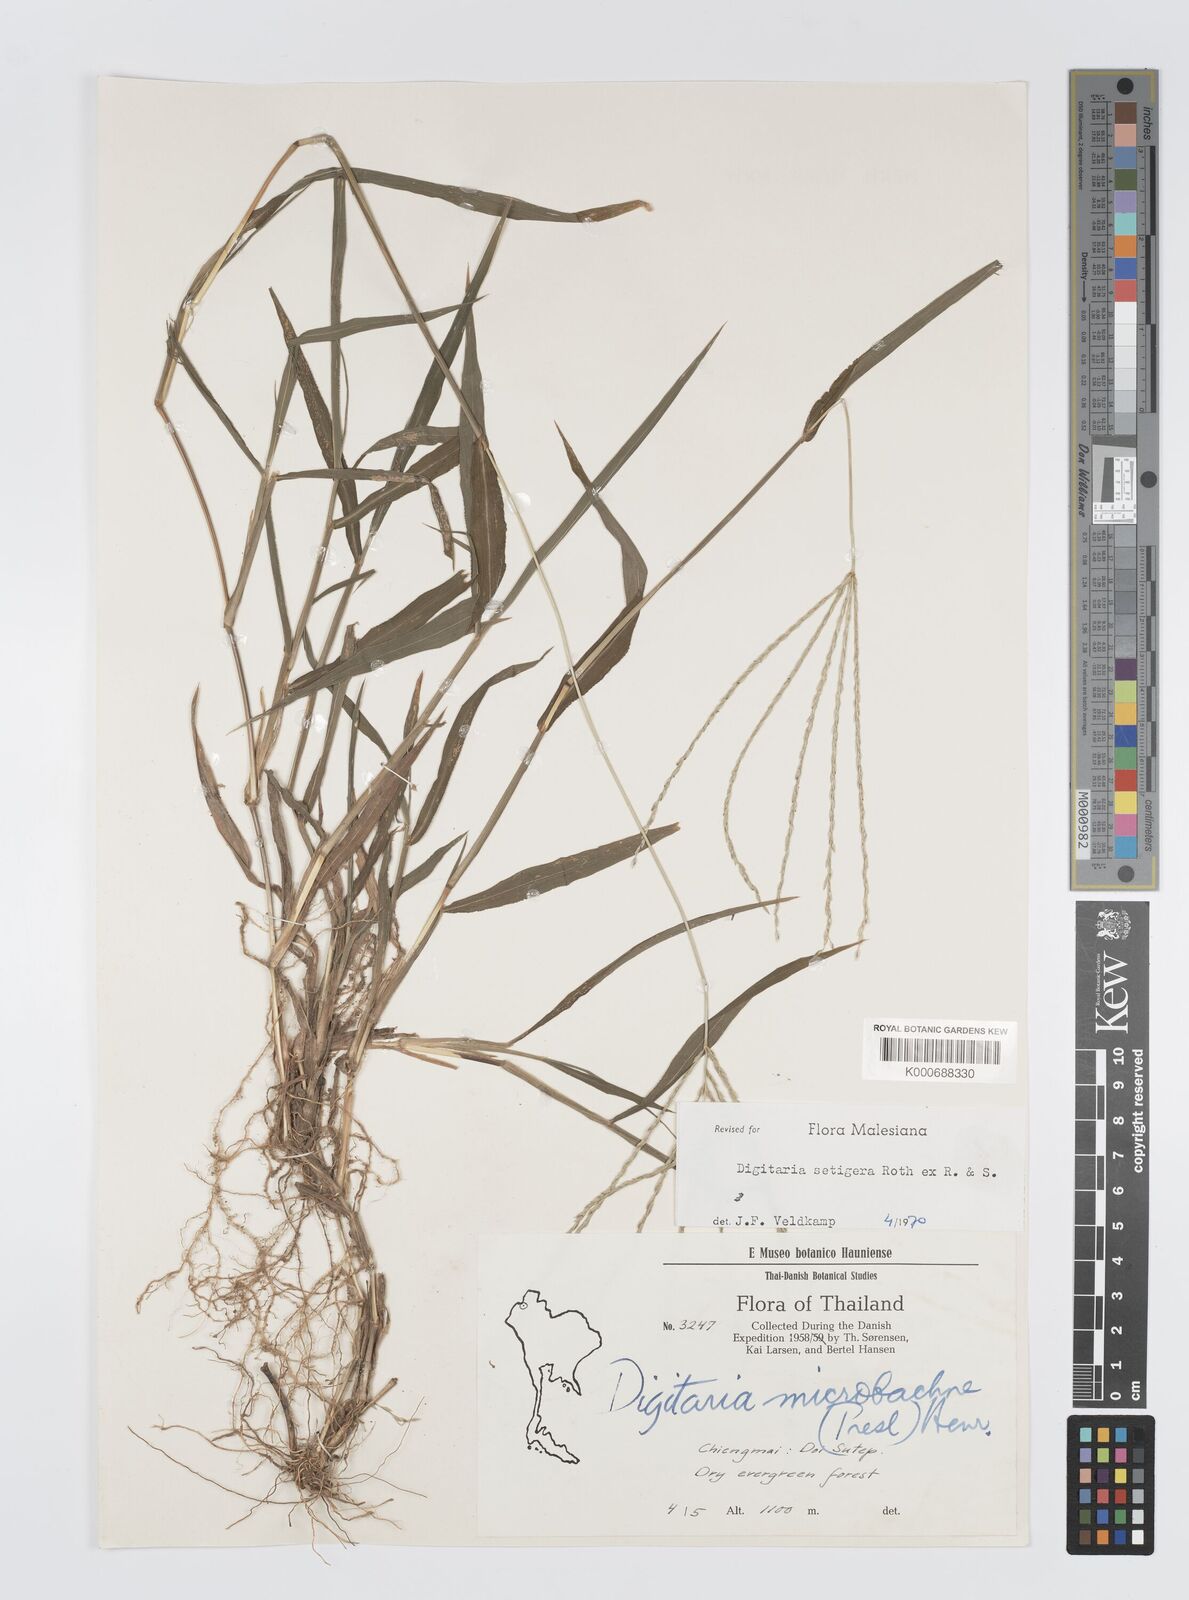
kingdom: Plantae
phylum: Tracheophyta
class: Liliopsida
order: Poales
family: Poaceae
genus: Digitaria
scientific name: Digitaria
